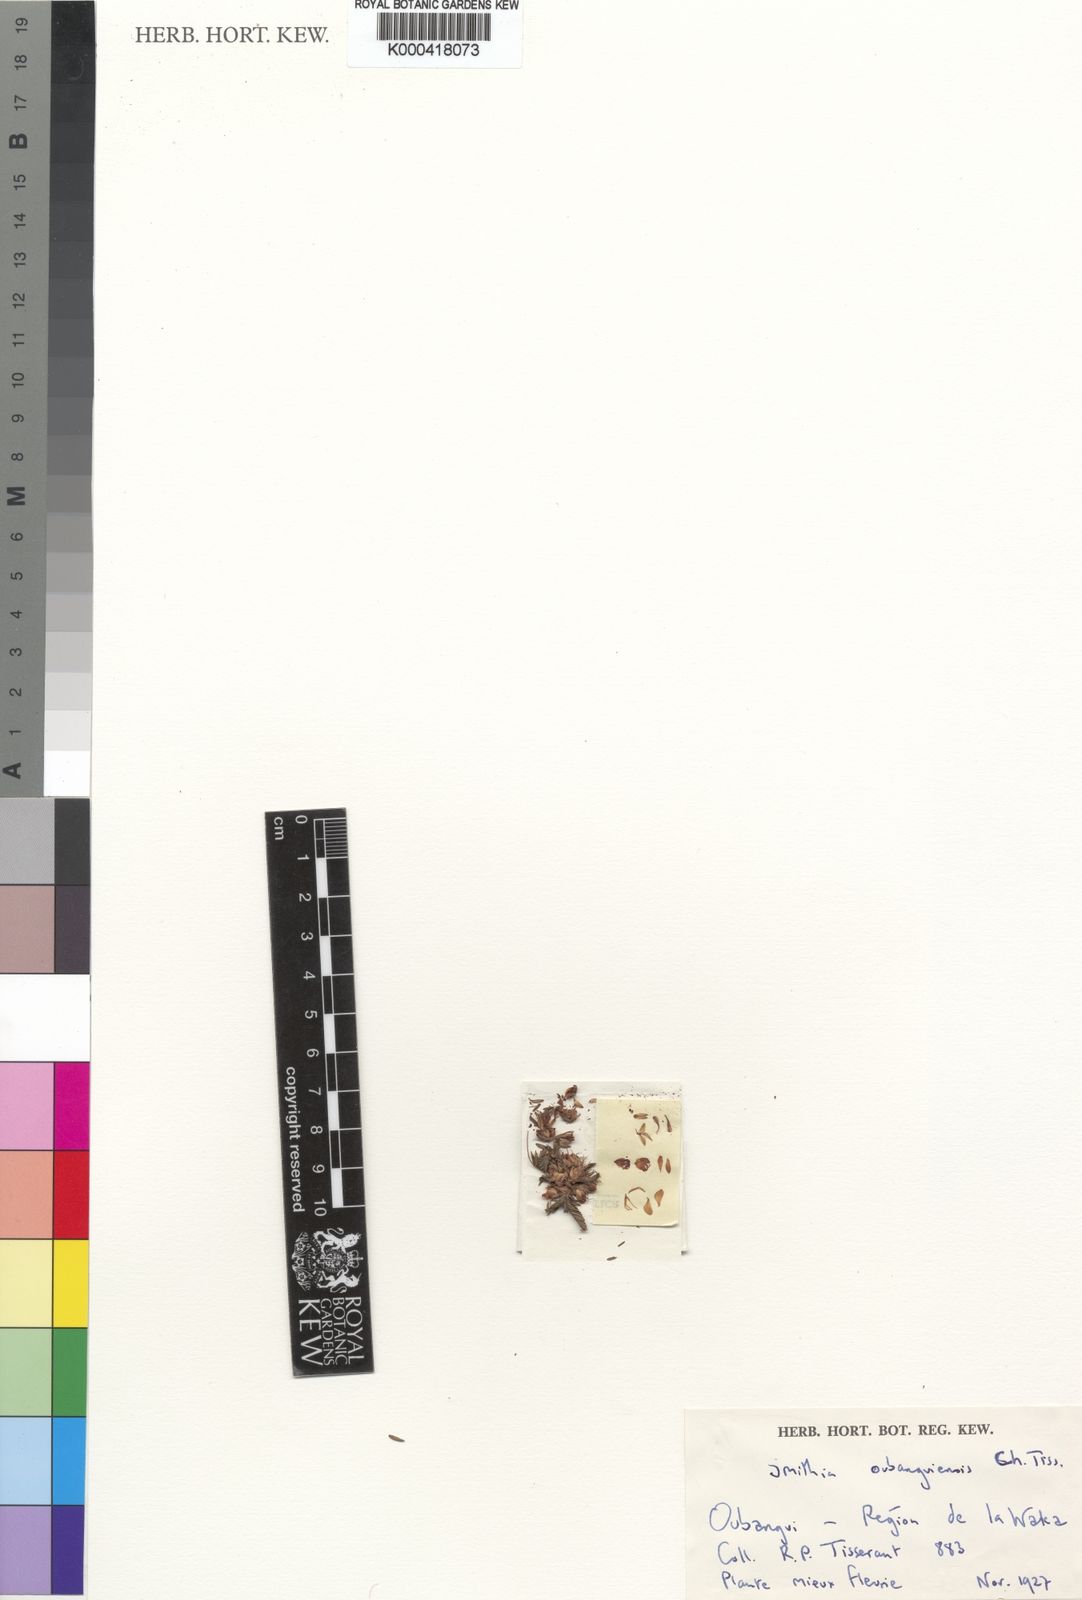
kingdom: Plantae
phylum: Tracheophyta
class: Magnoliopsida
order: Fabales
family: Fabaceae
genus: Kotschya
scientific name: Kotschya oubanguiensis
